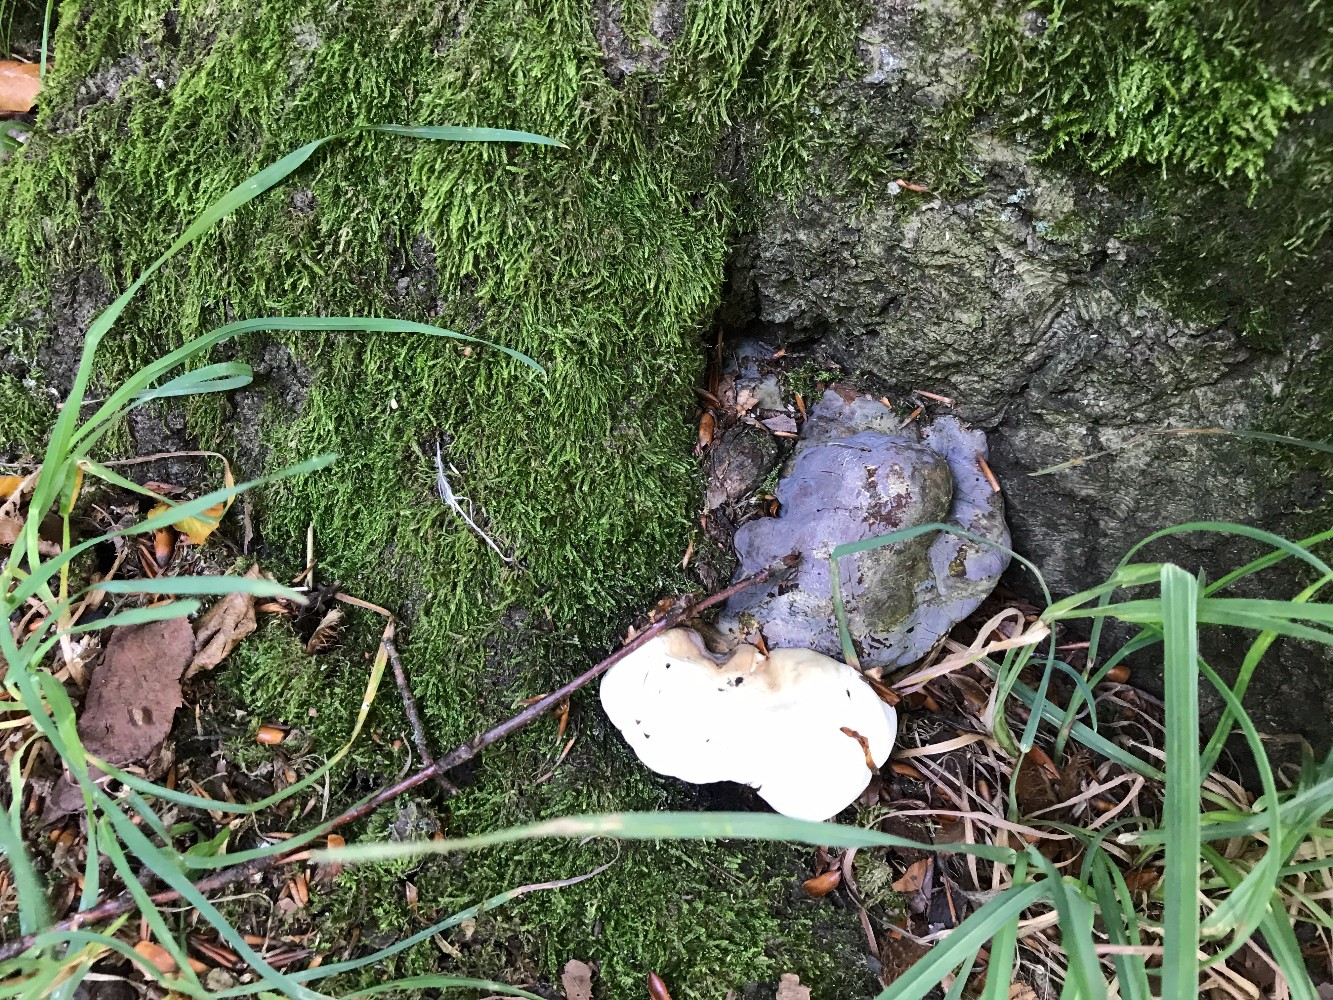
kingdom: Fungi
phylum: Basidiomycota
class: Agaricomycetes
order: Polyporales
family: Polyporaceae
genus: Ganoderma
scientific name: Ganoderma pfeifferi
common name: kobberrød lakporesvamp
